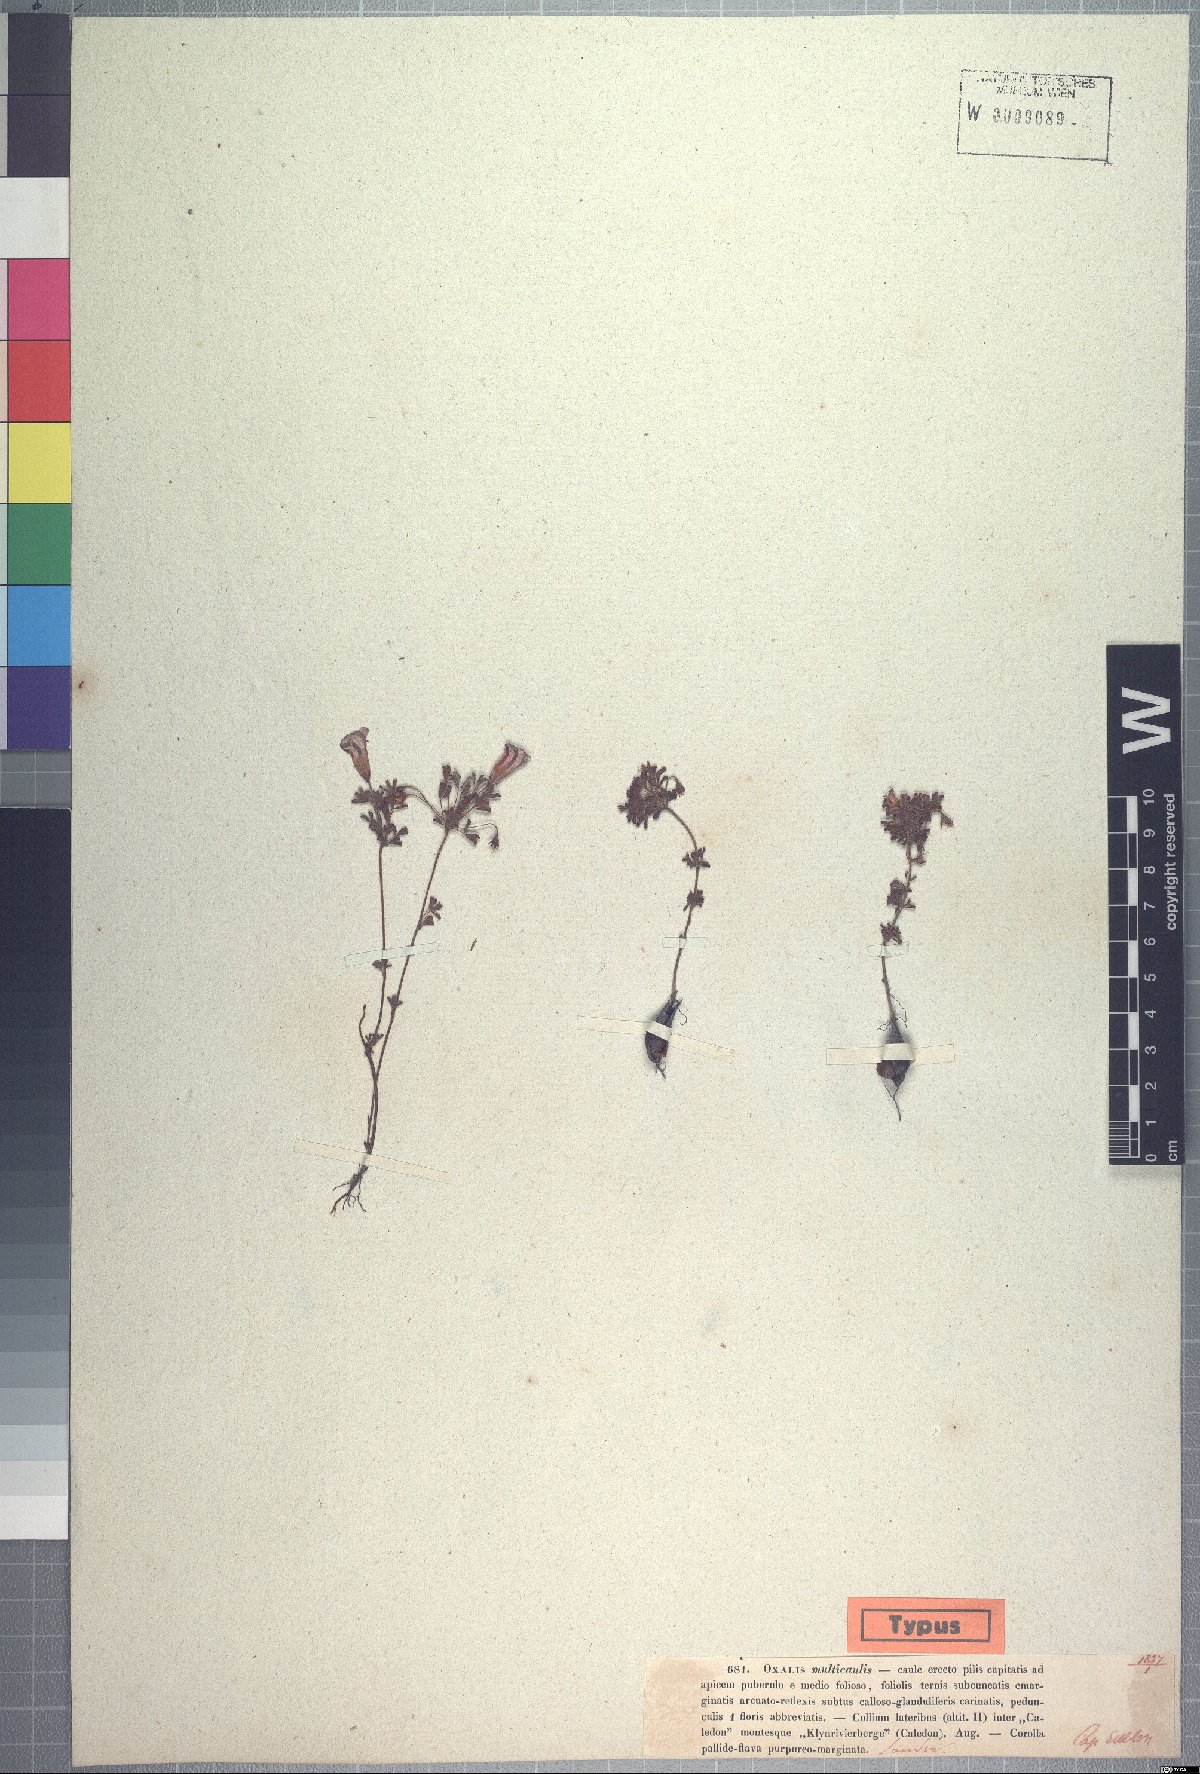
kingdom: Plantae
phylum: Tracheophyta
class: Magnoliopsida
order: Oxalidales
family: Oxalidaceae
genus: Oxalis
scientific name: Oxalis multicaulis
